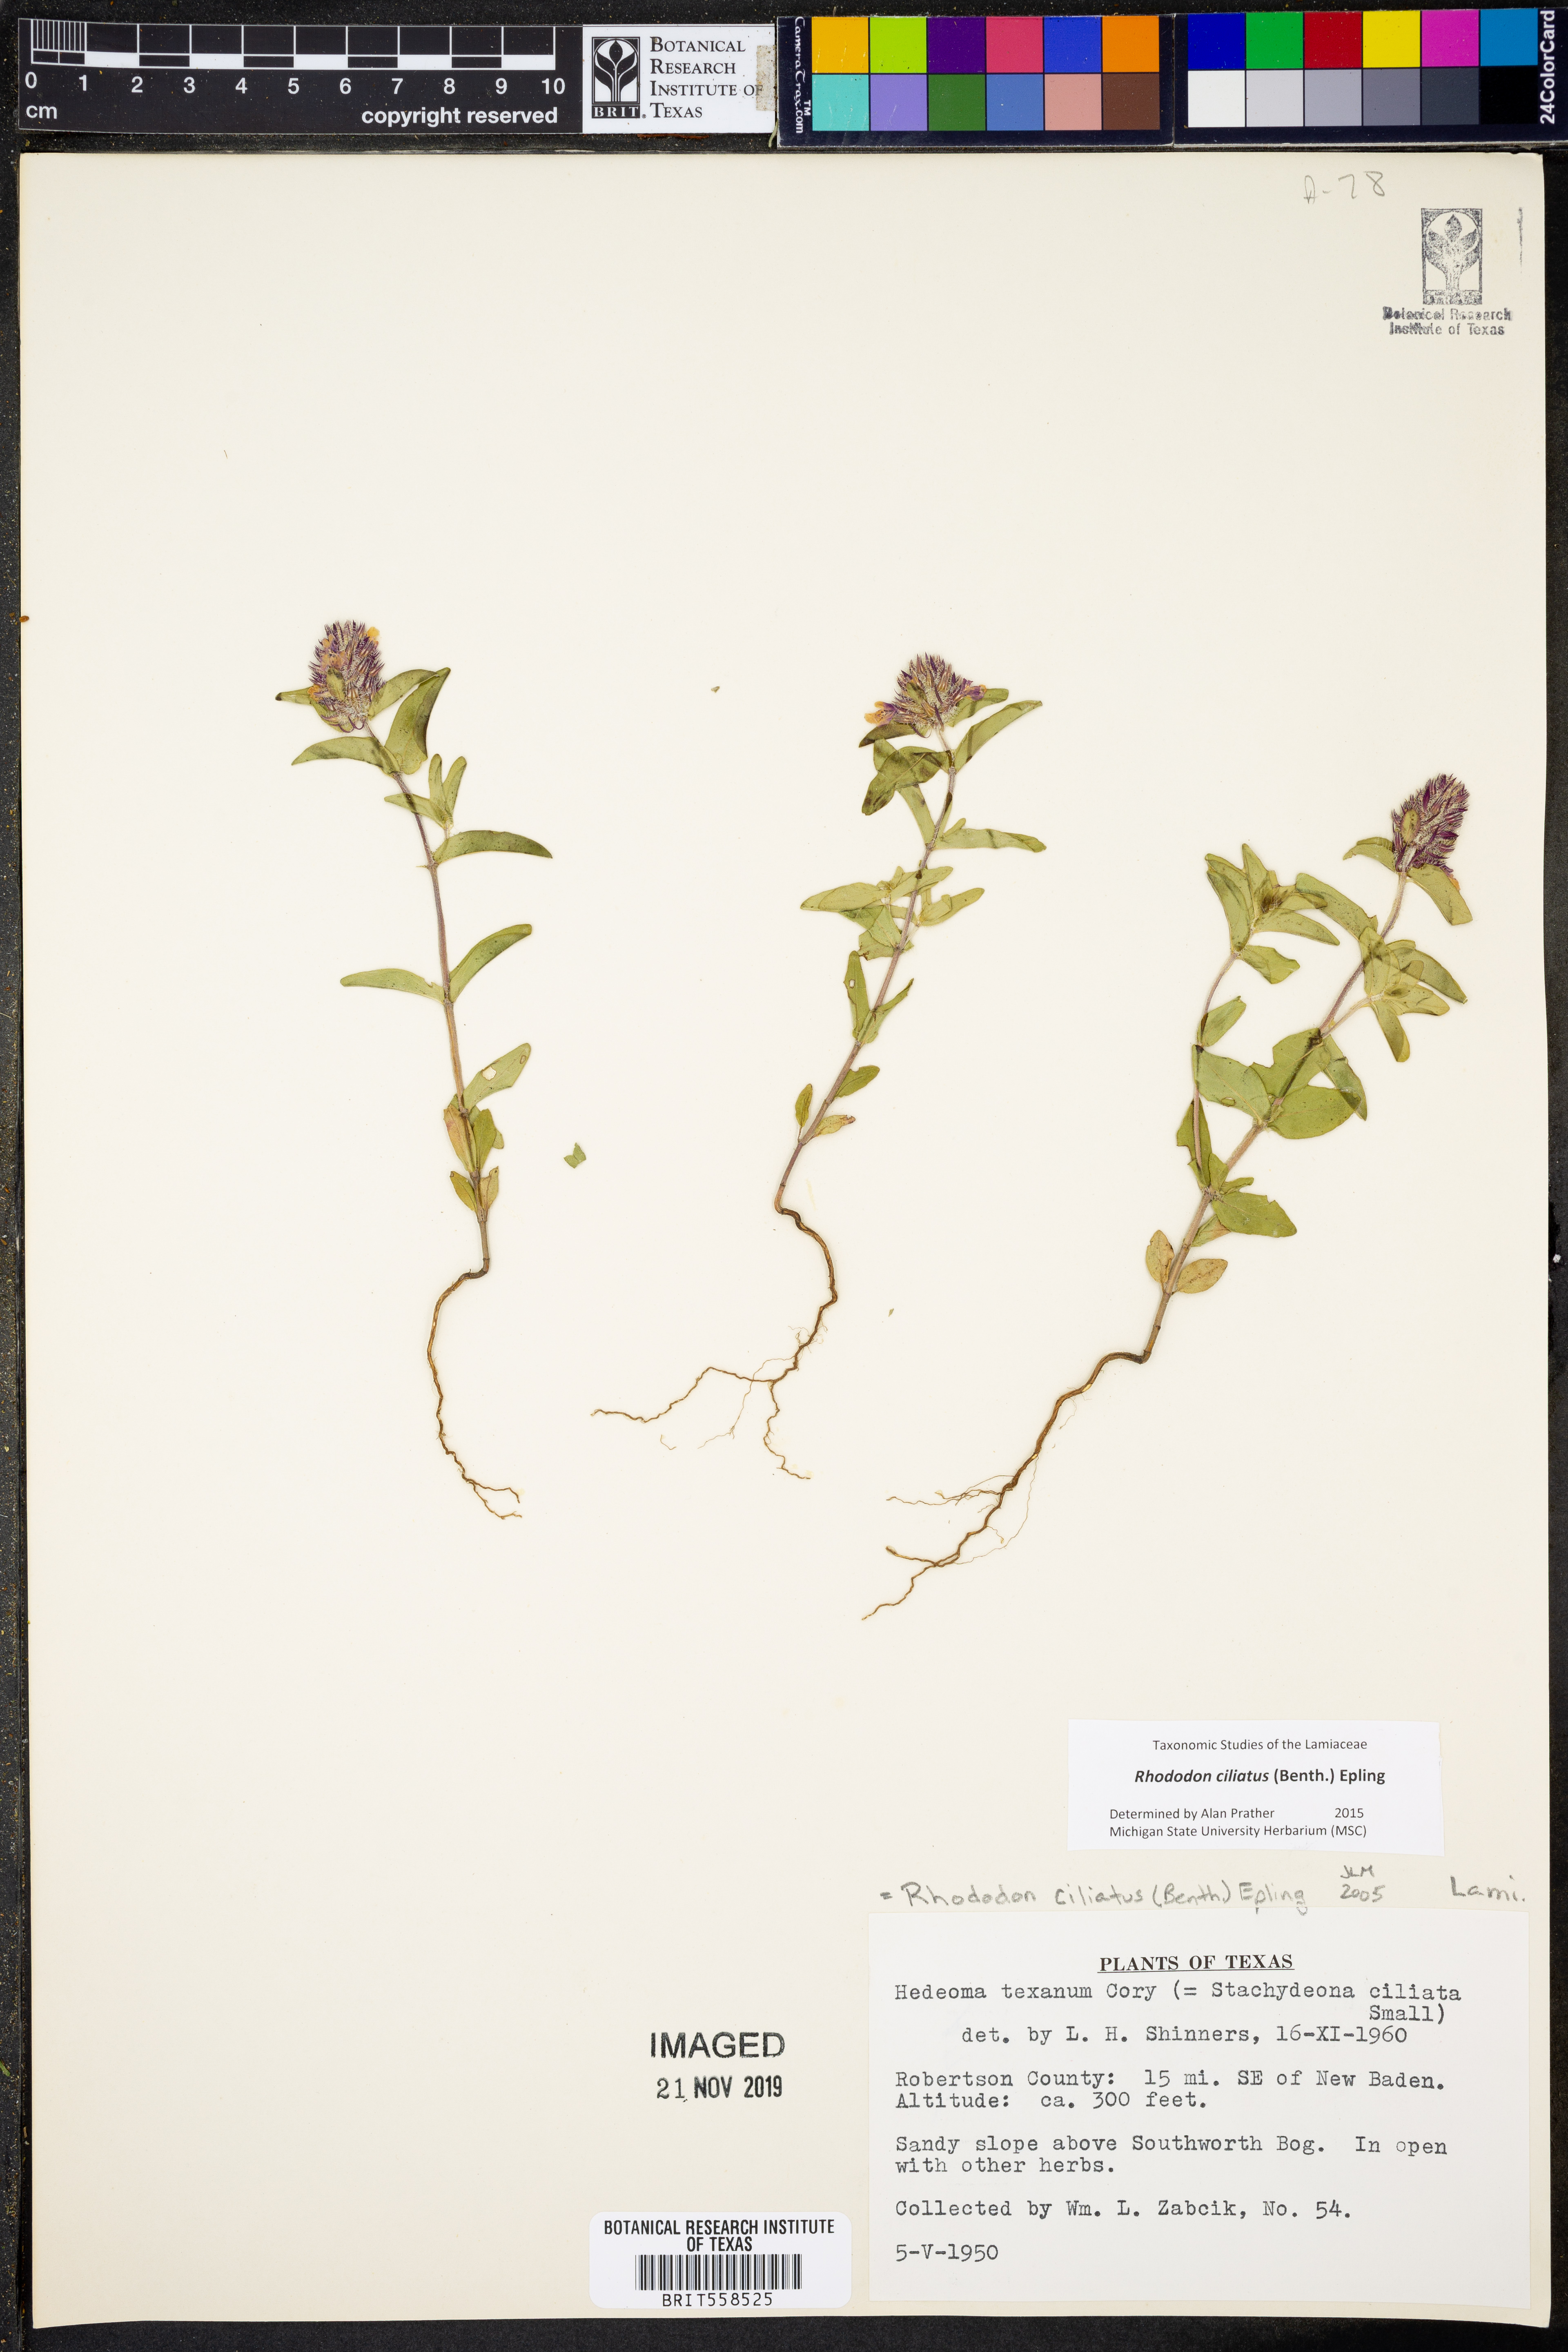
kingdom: Plantae
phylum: Tracheophyta
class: Magnoliopsida
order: Lamiales
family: Lamiaceae
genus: Rhododon
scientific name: Rhododon ciliatus
